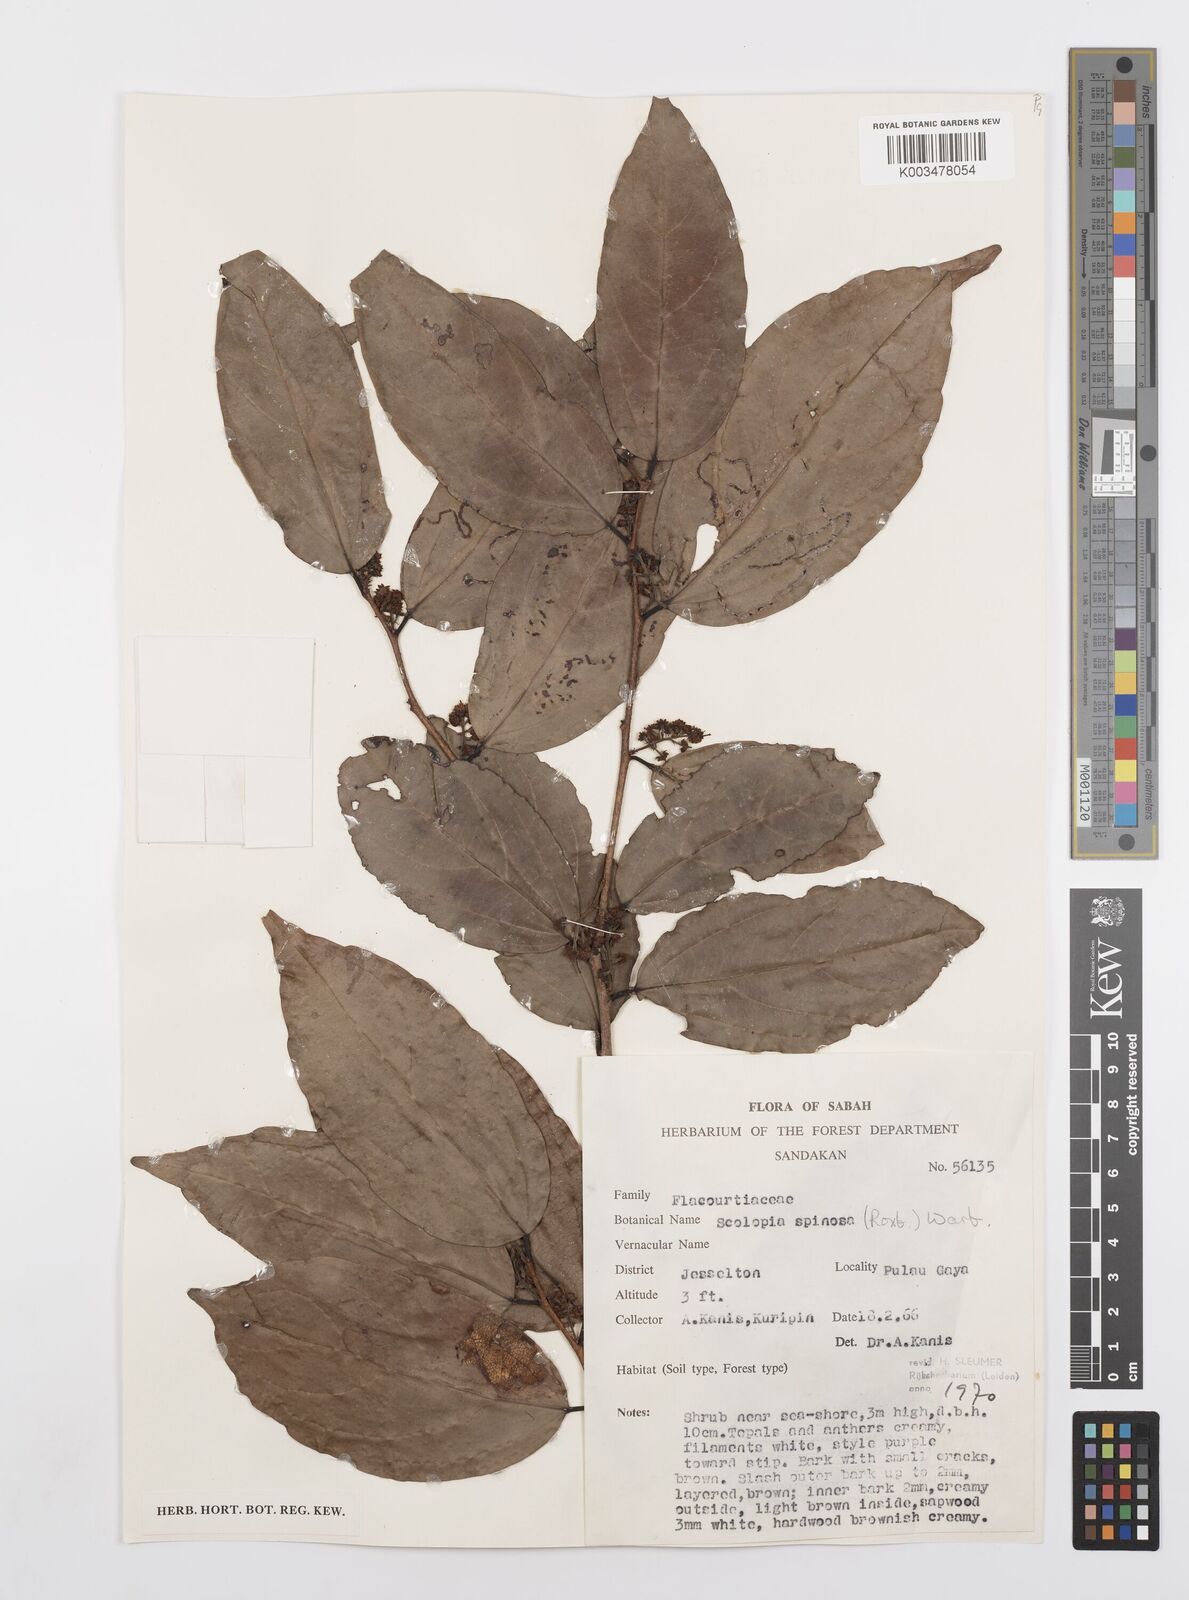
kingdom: Plantae
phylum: Tracheophyta
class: Magnoliopsida
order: Malpighiales
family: Salicaceae
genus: Scolopia
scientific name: Scolopia spinosa
